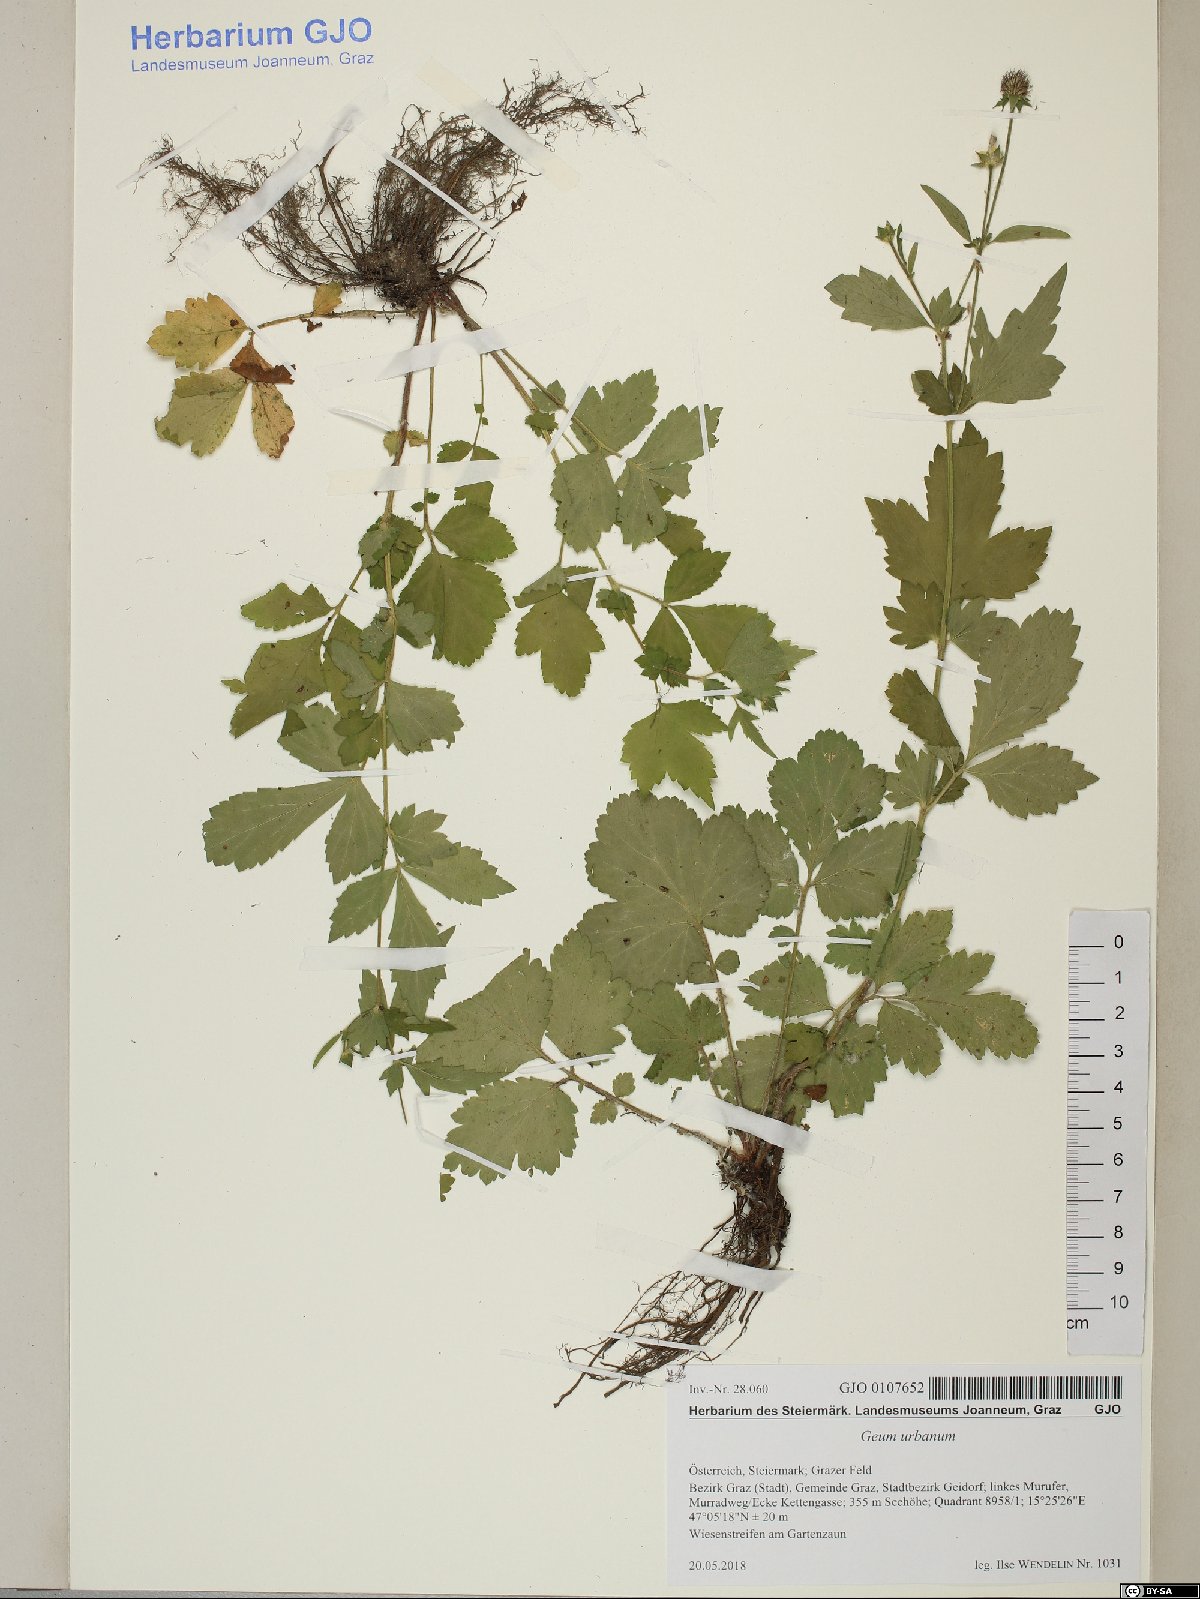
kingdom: Plantae
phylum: Tracheophyta
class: Magnoliopsida
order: Rosales
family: Rosaceae
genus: Geum
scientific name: Geum urbanum
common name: Wood avens
